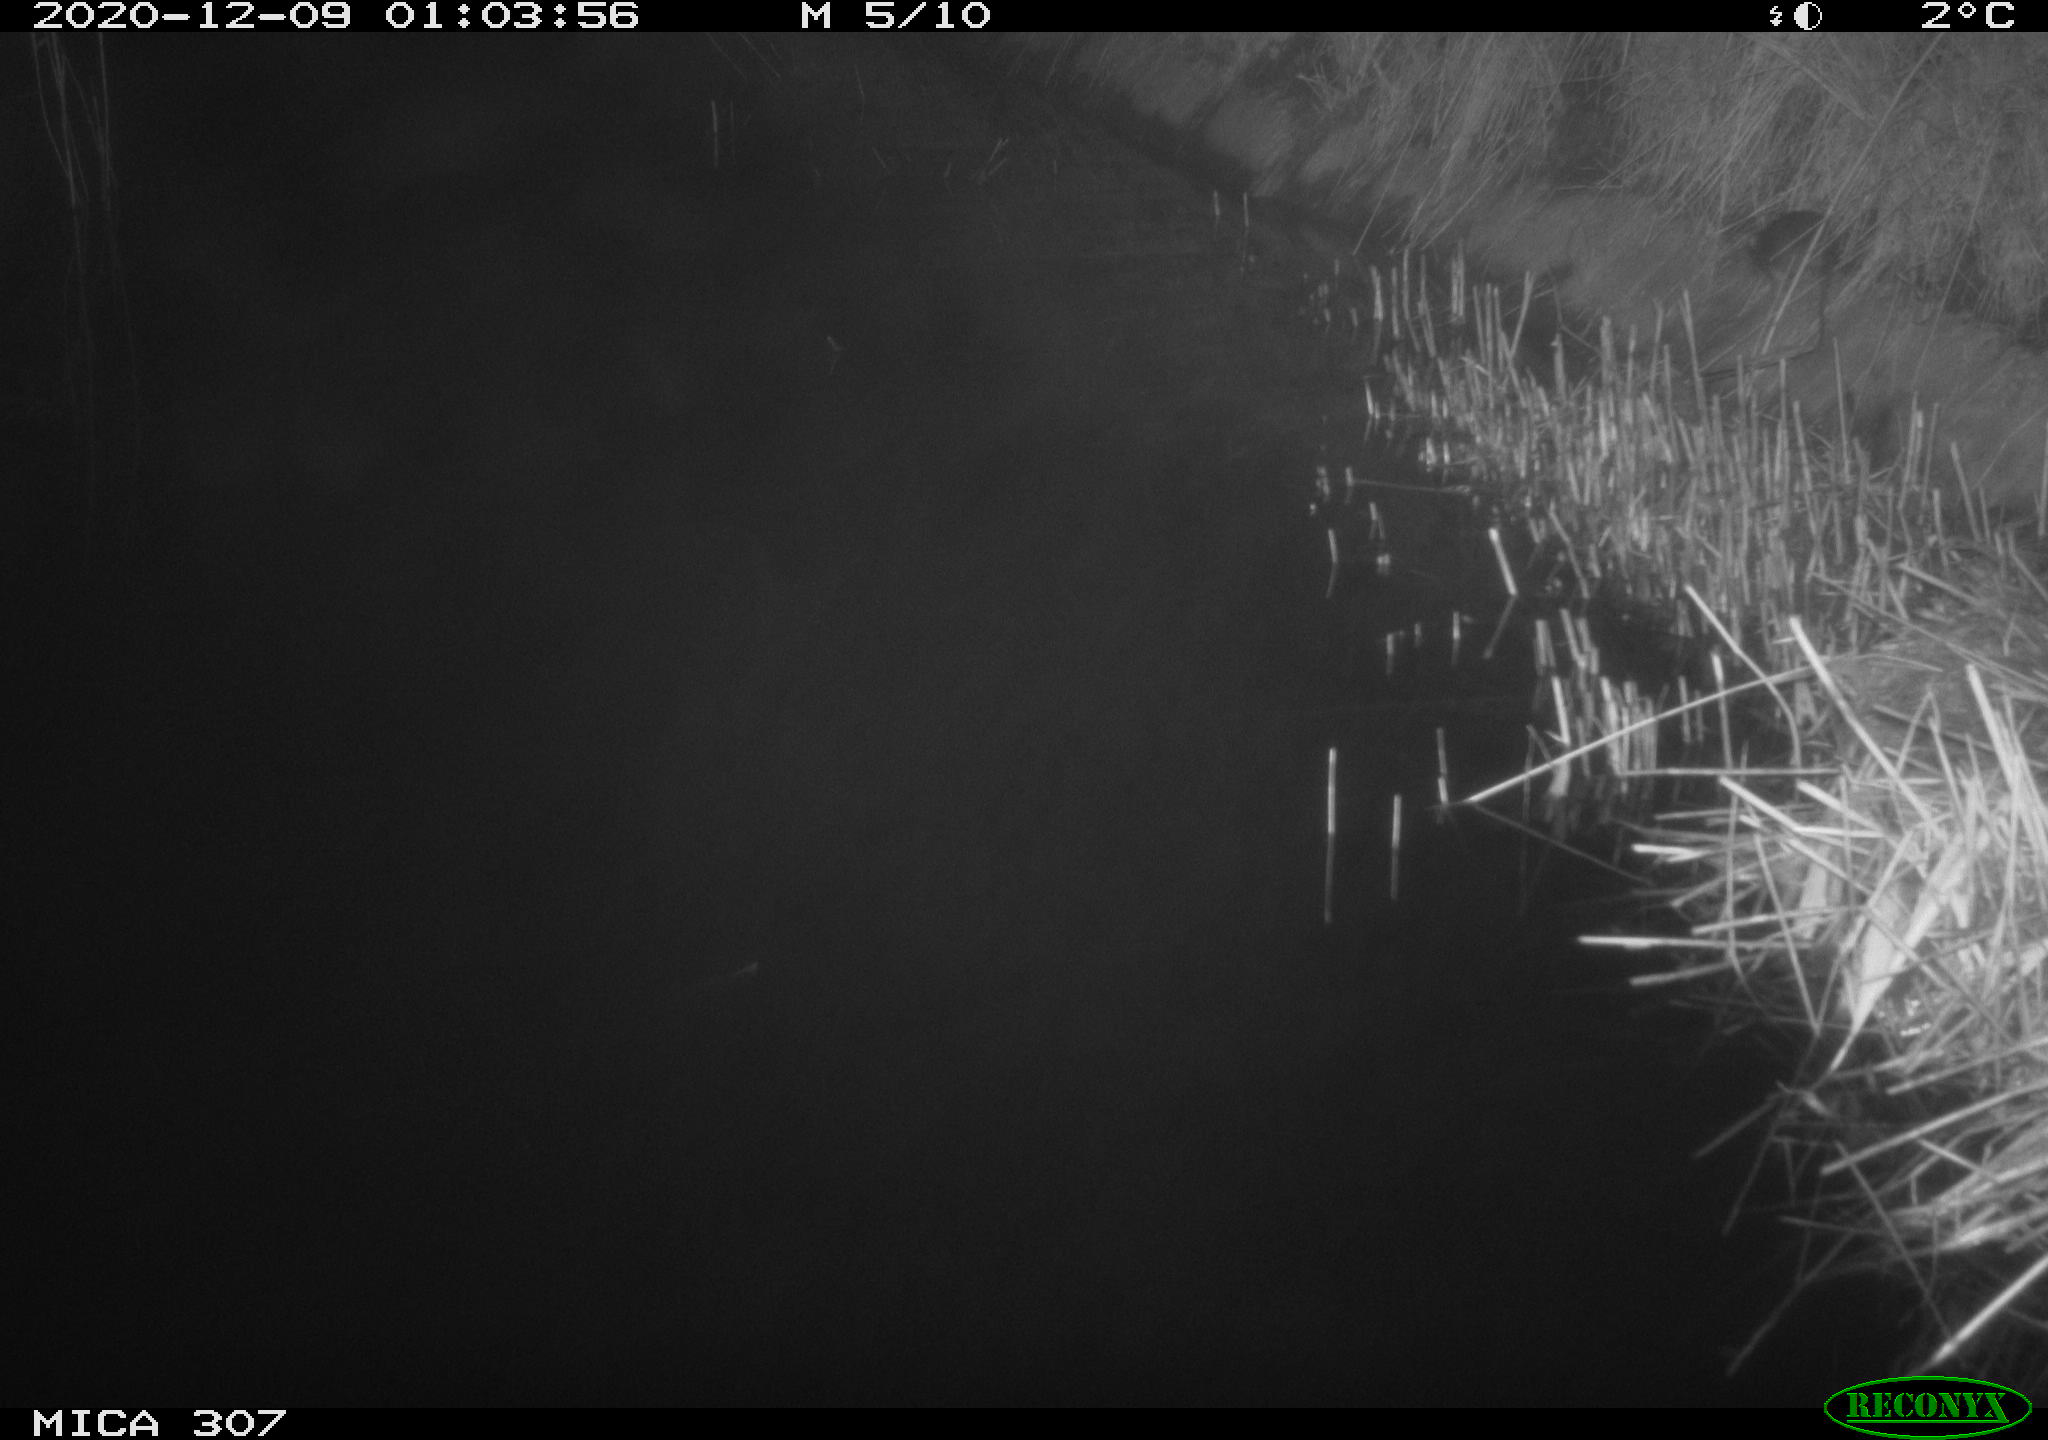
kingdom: Animalia
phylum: Chordata
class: Mammalia
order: Rodentia
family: Muridae
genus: Rattus
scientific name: Rattus norvegicus
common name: Brown rat
